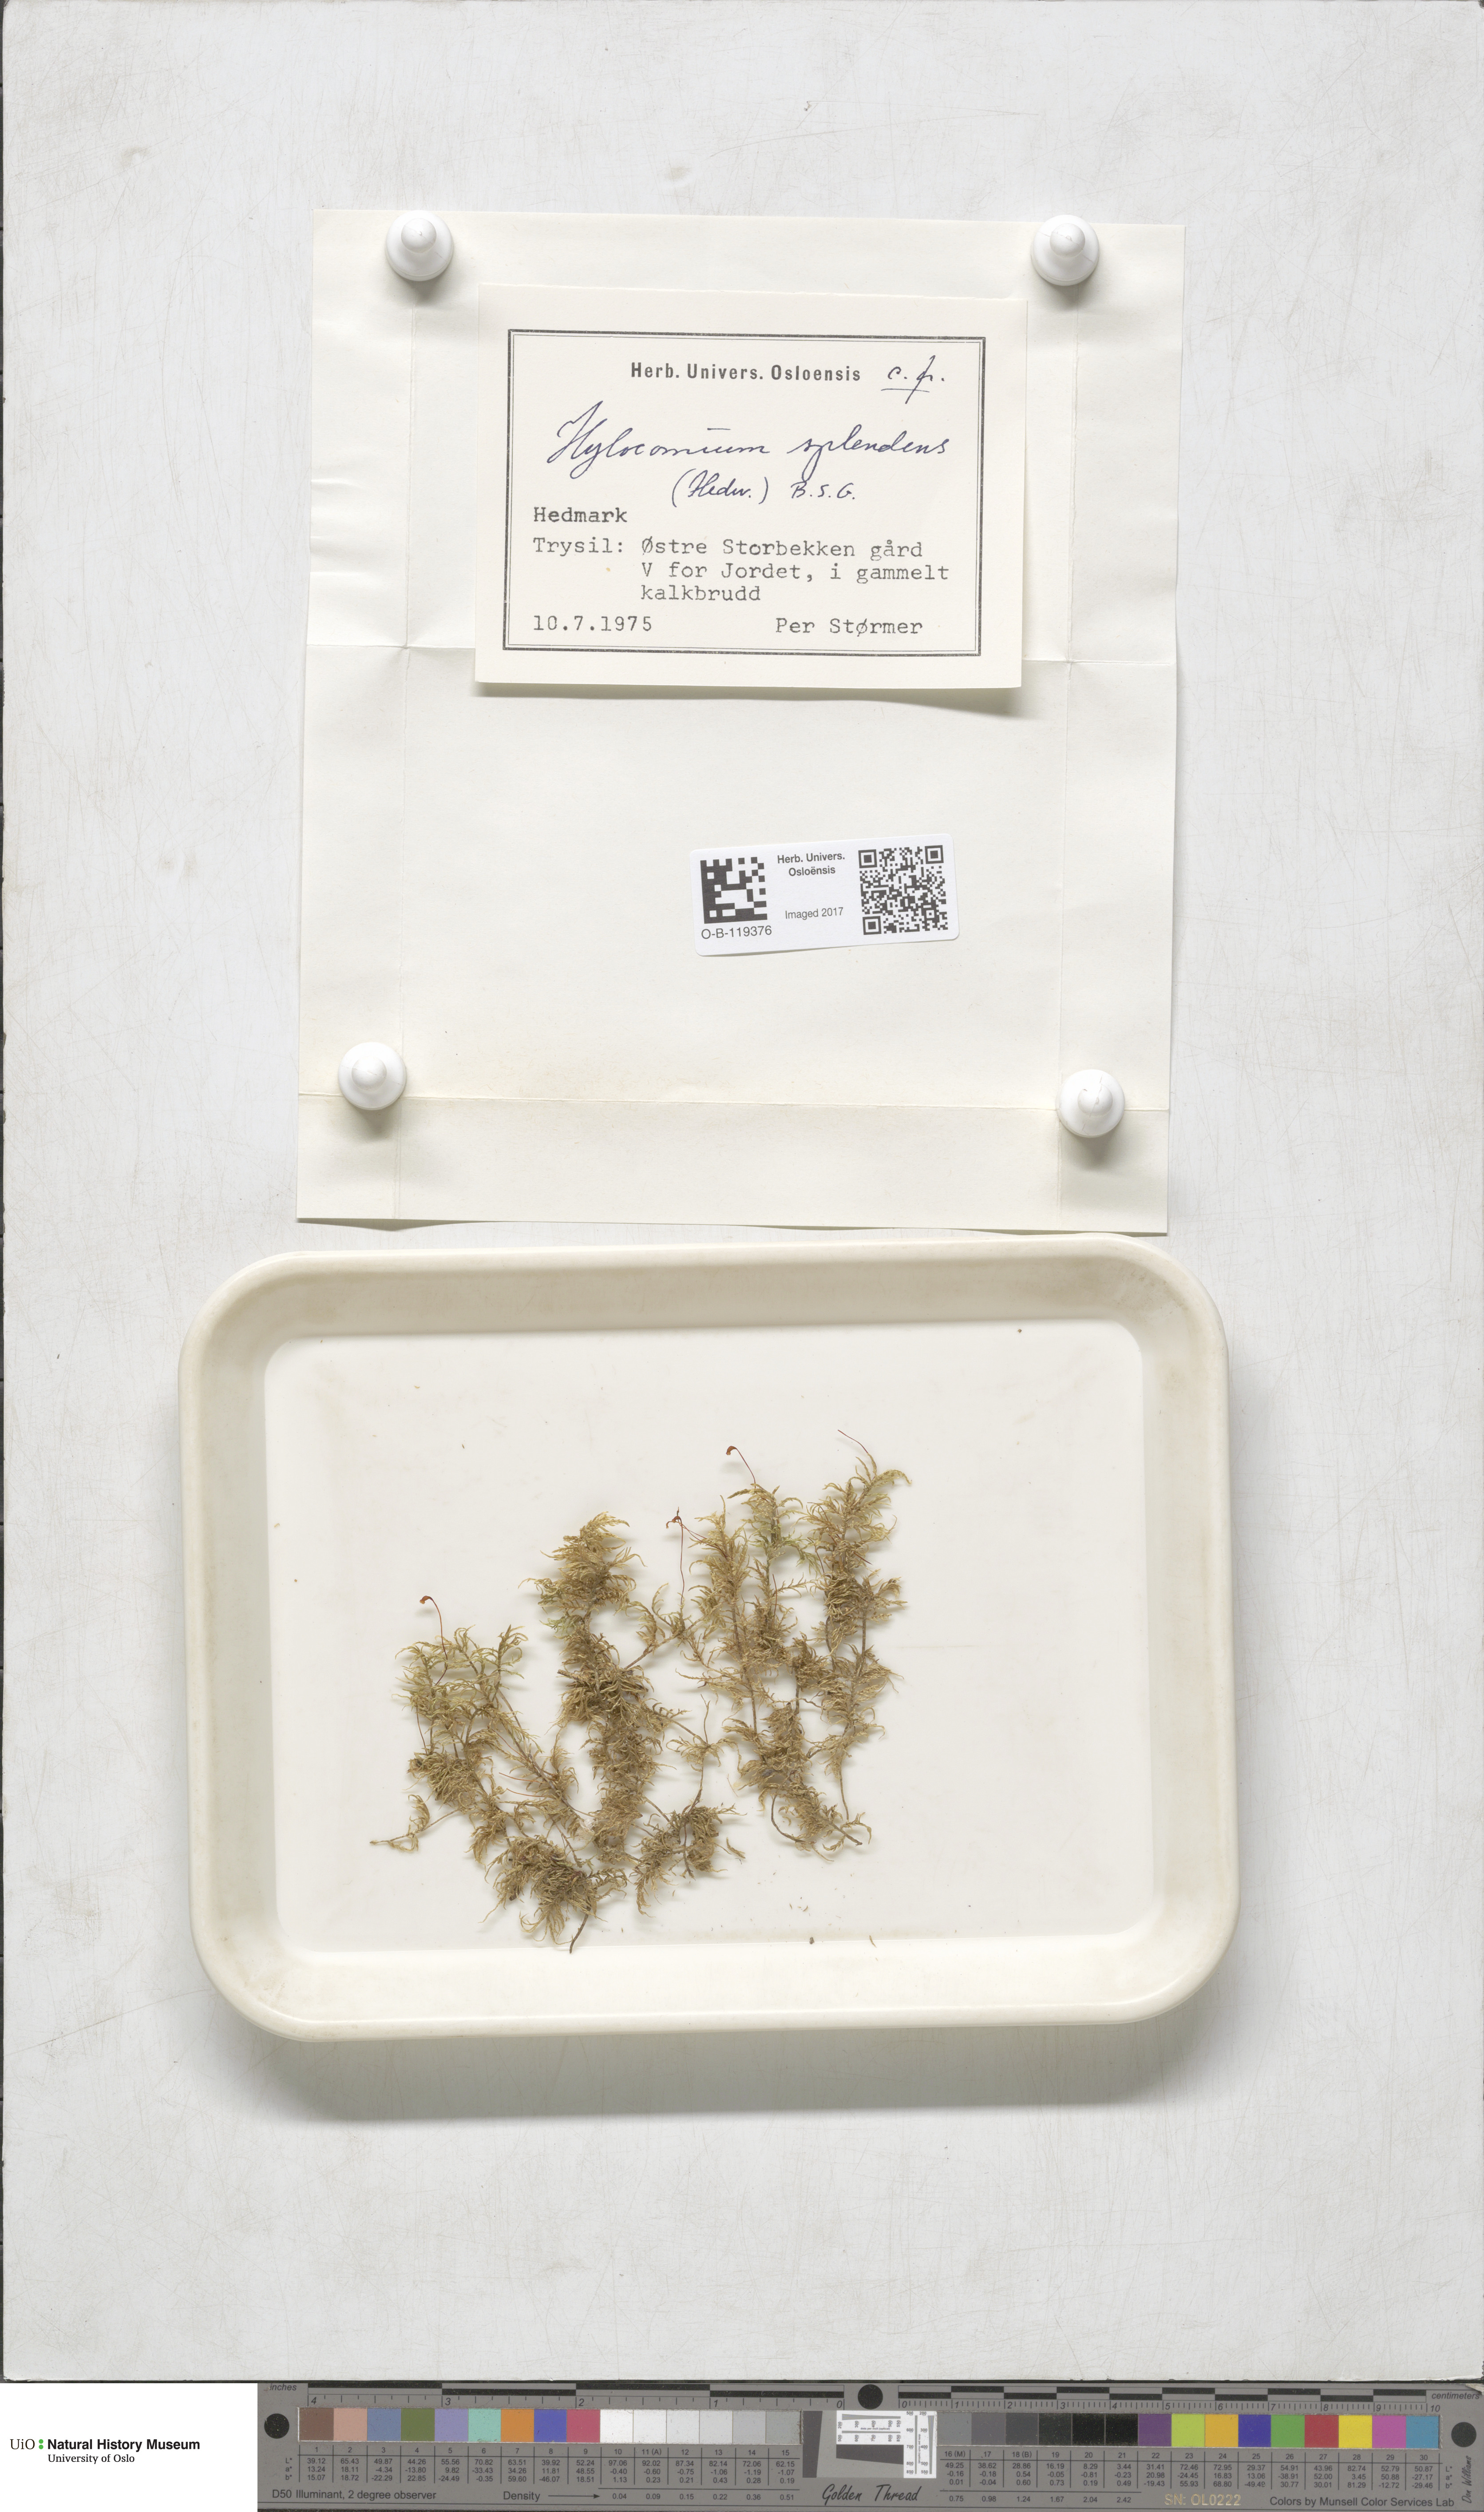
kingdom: Plantae
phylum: Bryophyta
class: Bryopsida
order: Hypnales
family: Hylocomiaceae
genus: Hylocomium
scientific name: Hylocomium splendens
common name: Stairstep moss
